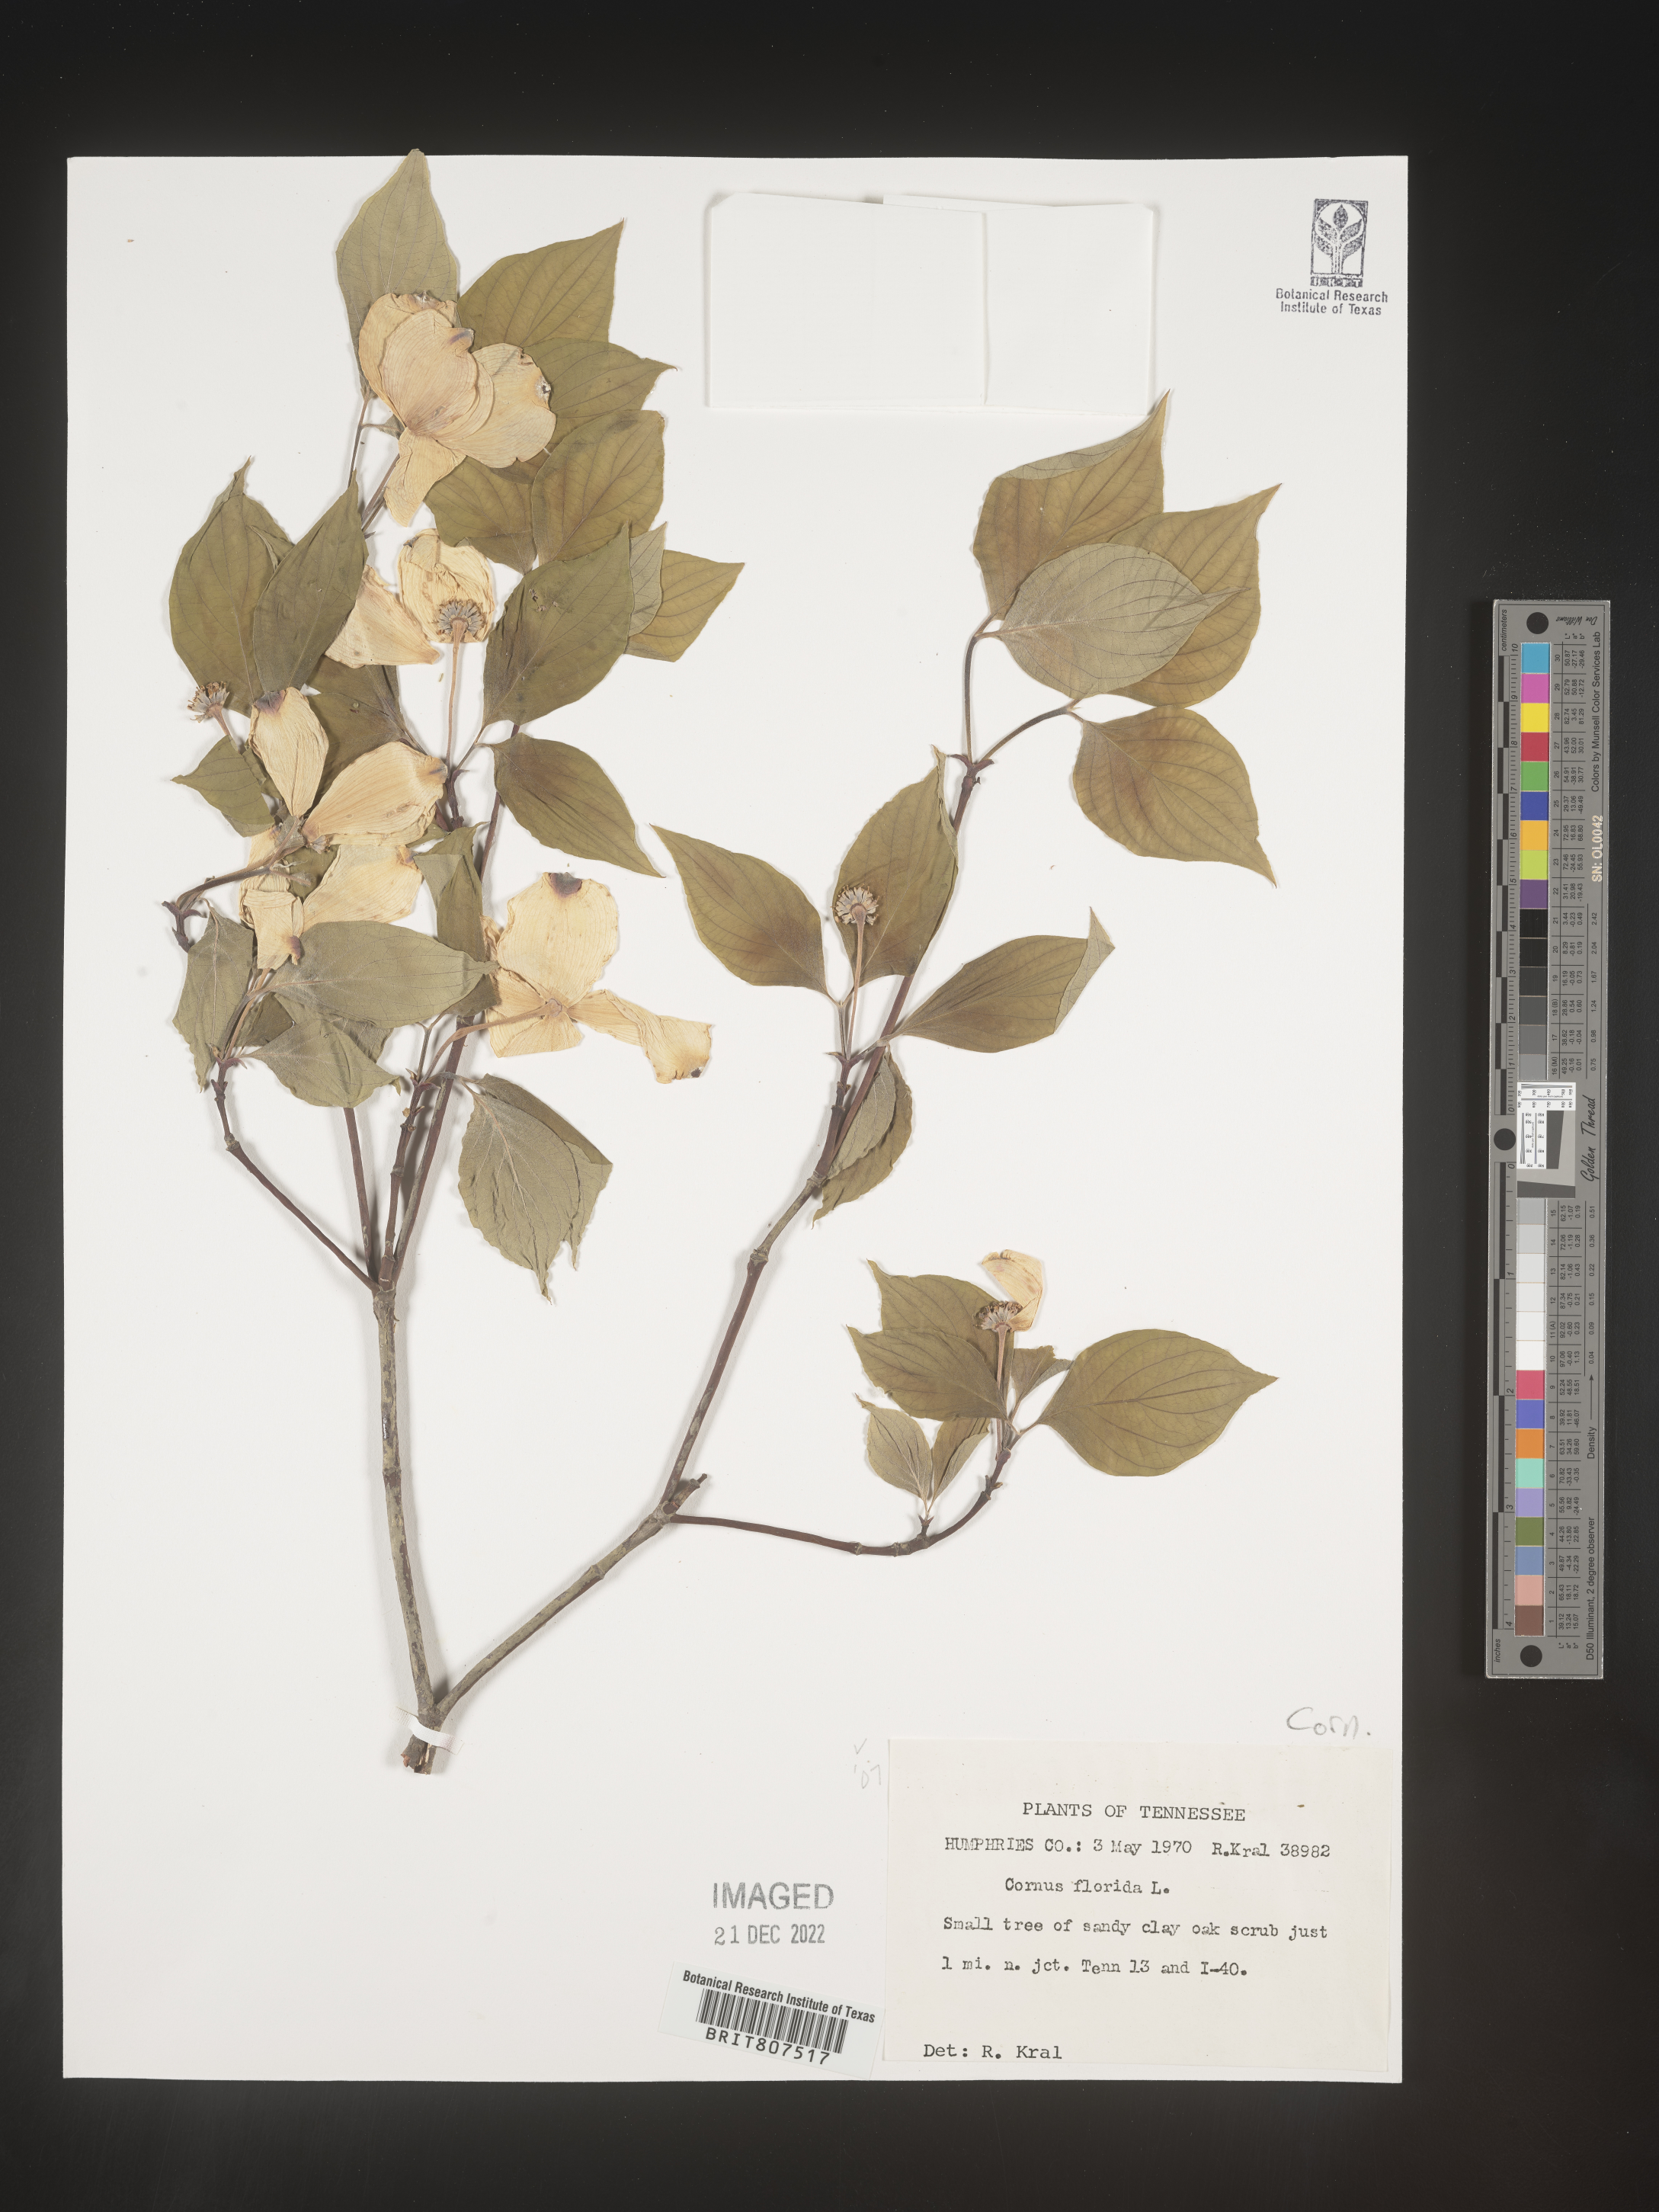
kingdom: Plantae
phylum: Tracheophyta
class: Magnoliopsida
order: Cornales
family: Cornaceae
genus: Cornus
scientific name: Cornus florida
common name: Flowering dogwood
